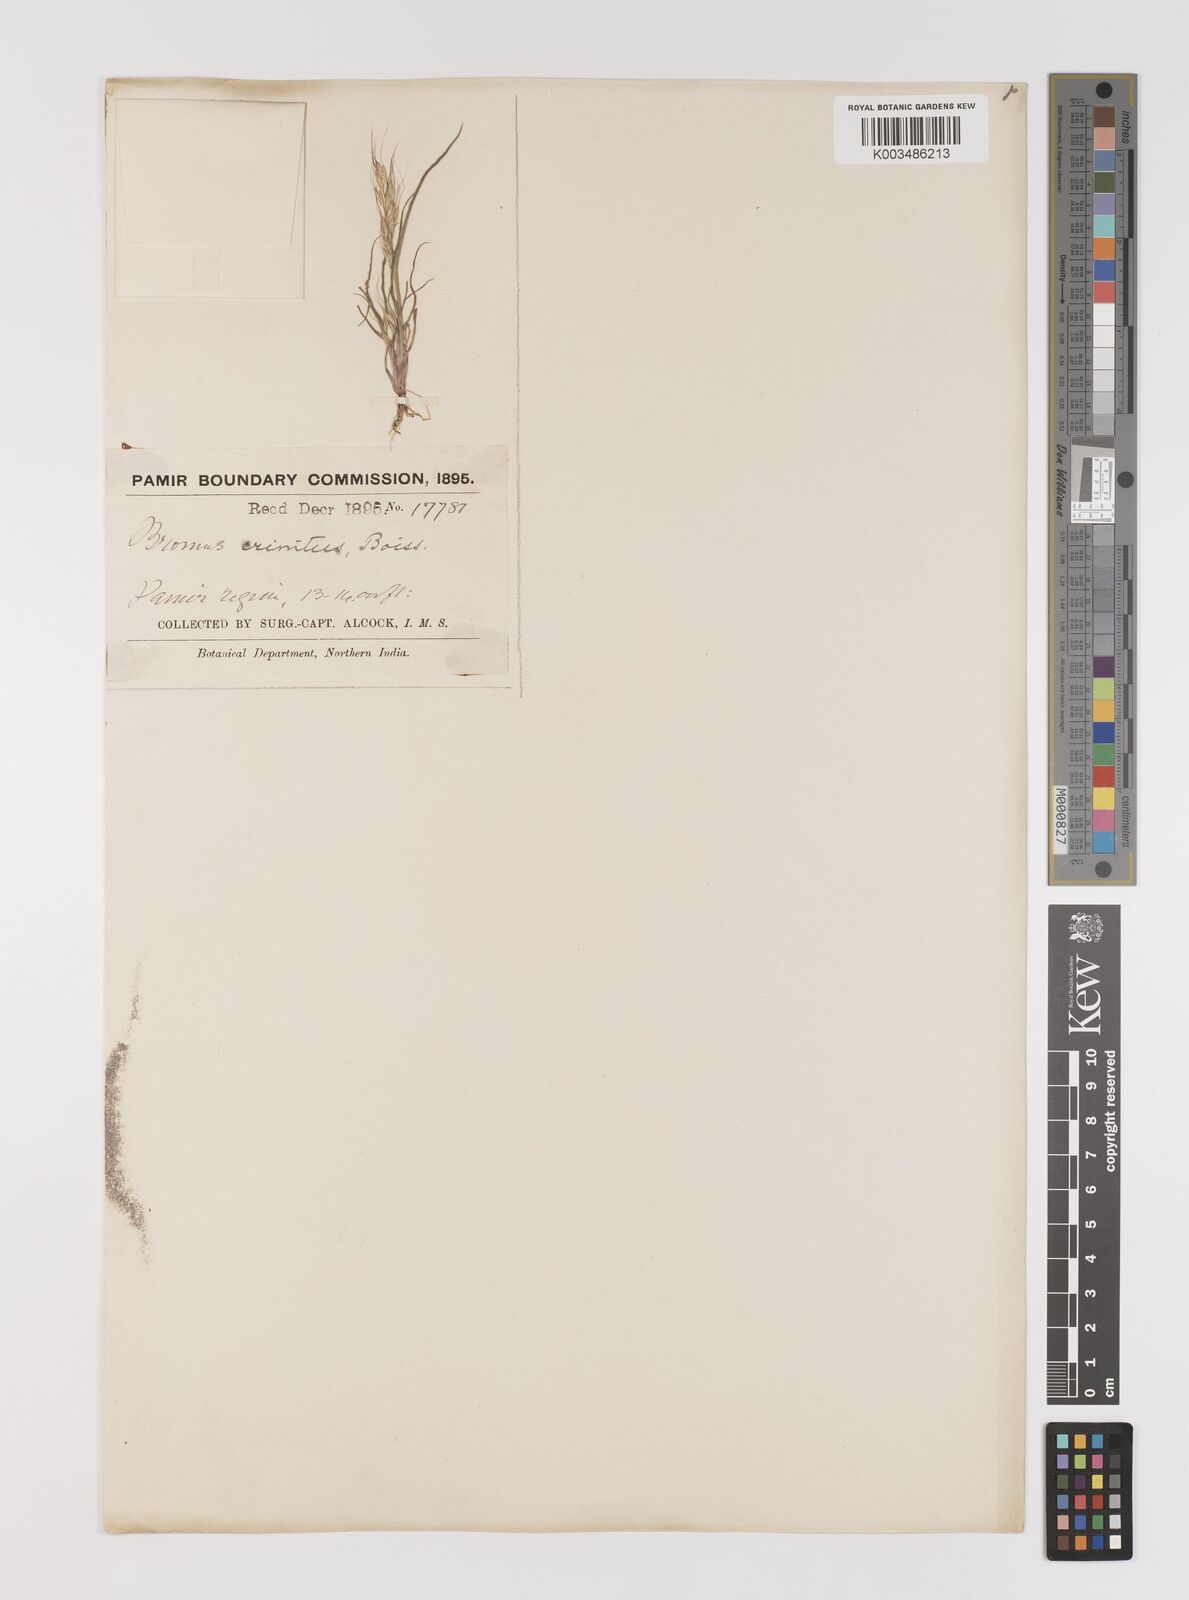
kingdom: Plantae
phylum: Tracheophyta
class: Liliopsida
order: Poales
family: Poaceae
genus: Bromus
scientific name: Bromus gracillimus
